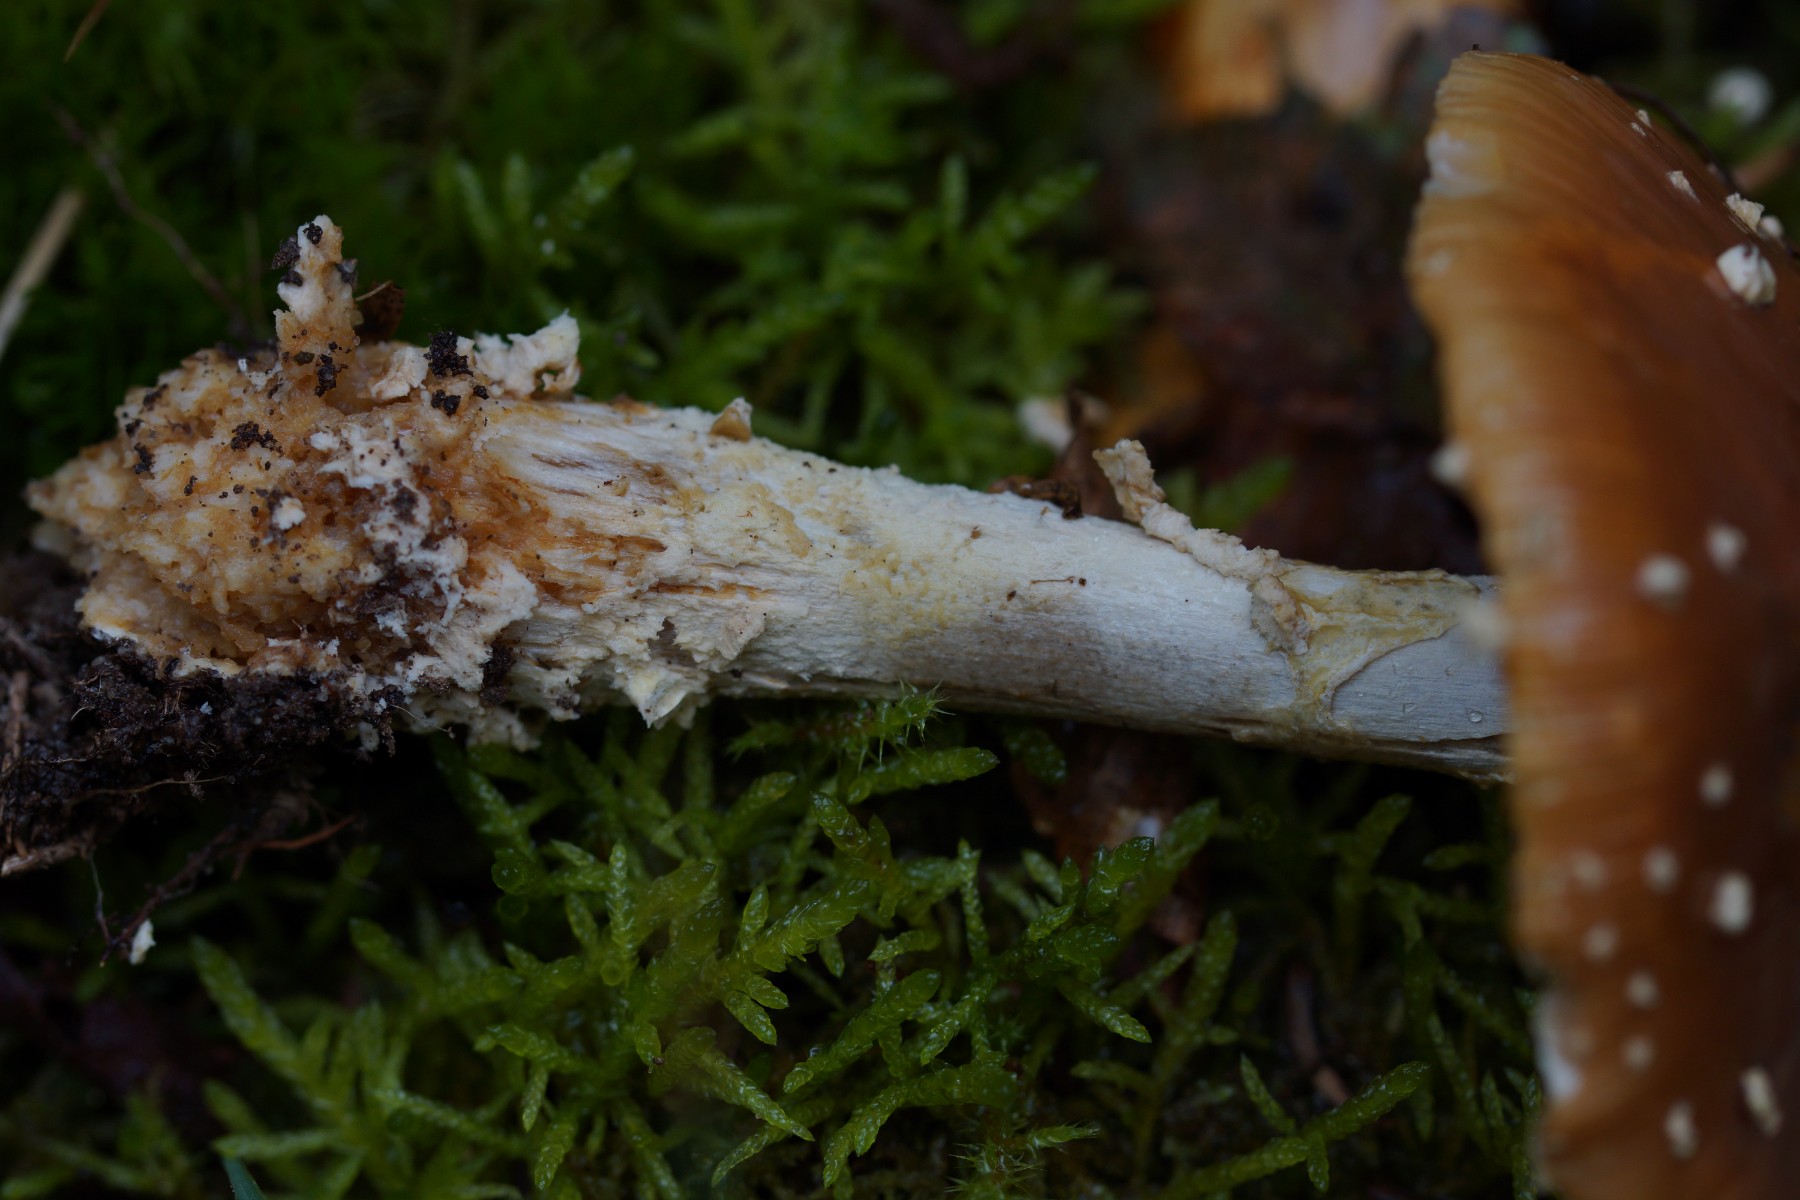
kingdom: Fungi
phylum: Basidiomycota
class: Agaricomycetes
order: Agaricales
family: Amanitaceae
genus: Amanita
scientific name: Amanita pantherina
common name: panter-fluesvamp
